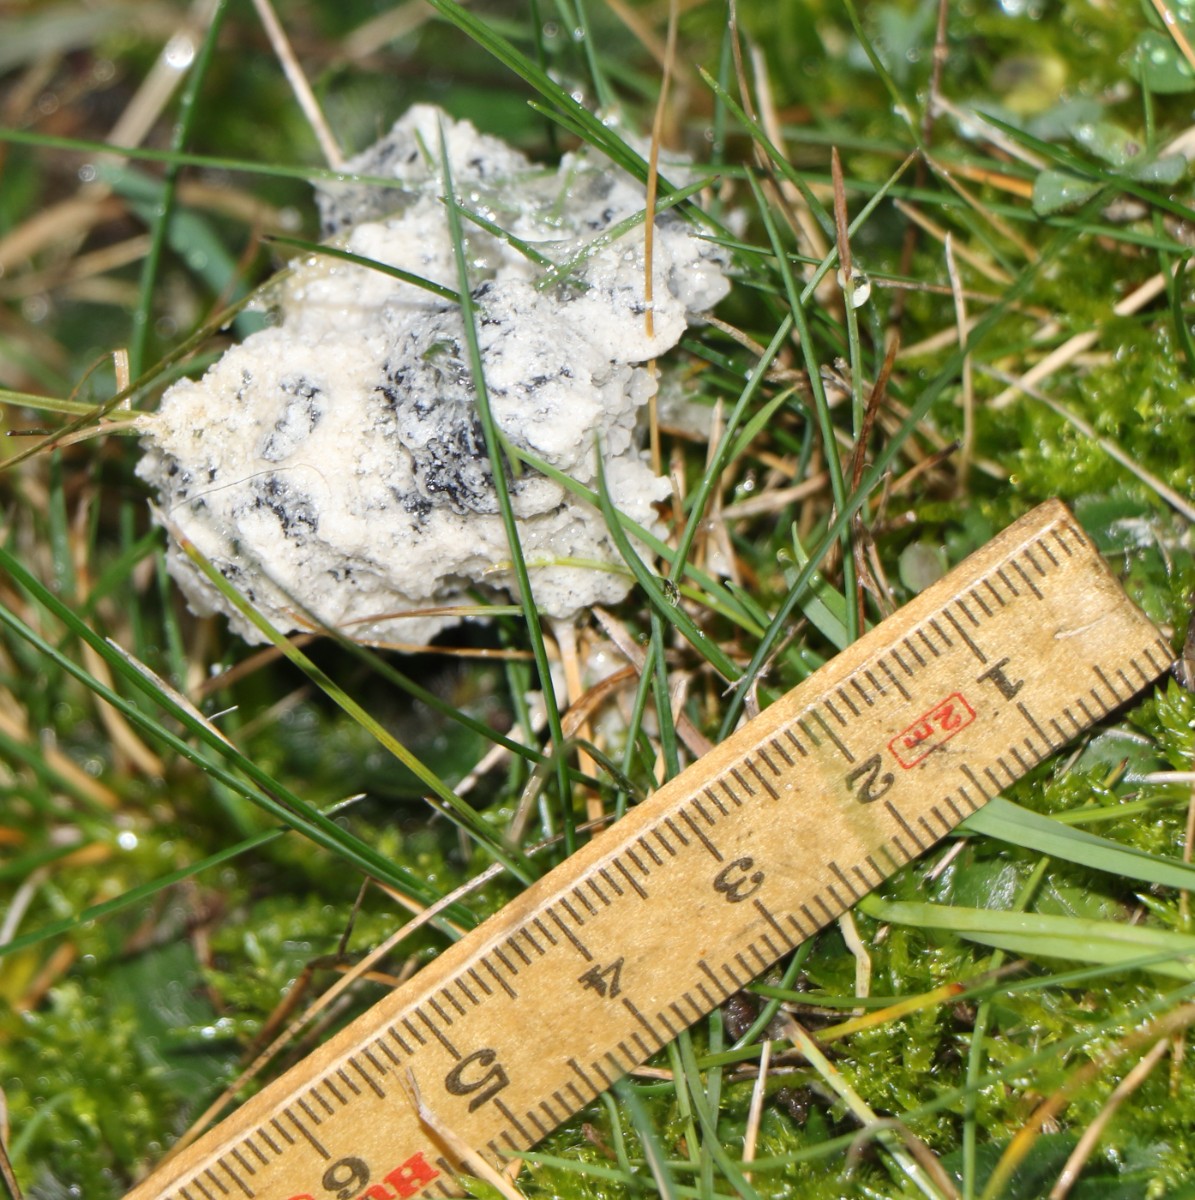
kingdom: Protozoa
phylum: Mycetozoa
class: Myxomycetes
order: Physarales
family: Physaraceae
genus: Didymium
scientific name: Didymium
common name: urteskum
